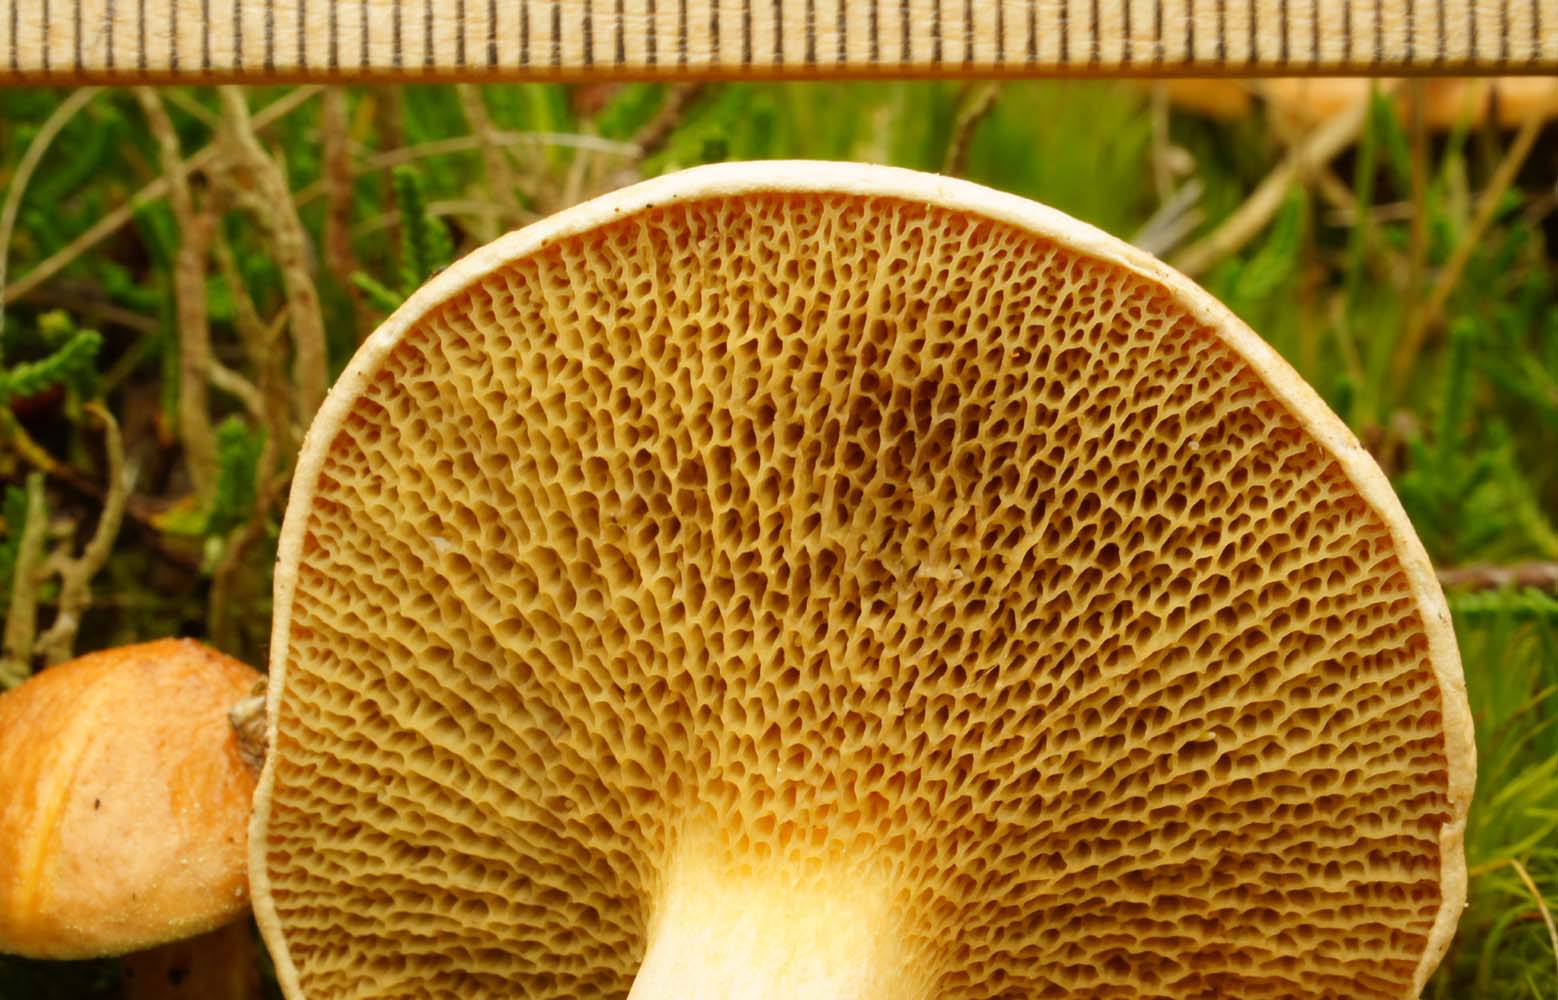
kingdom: Fungi
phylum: Basidiomycota
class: Agaricomycetes
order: Boletales
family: Suillaceae
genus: Suillus
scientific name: Suillus bovinus
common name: grovporet slimrørhat
